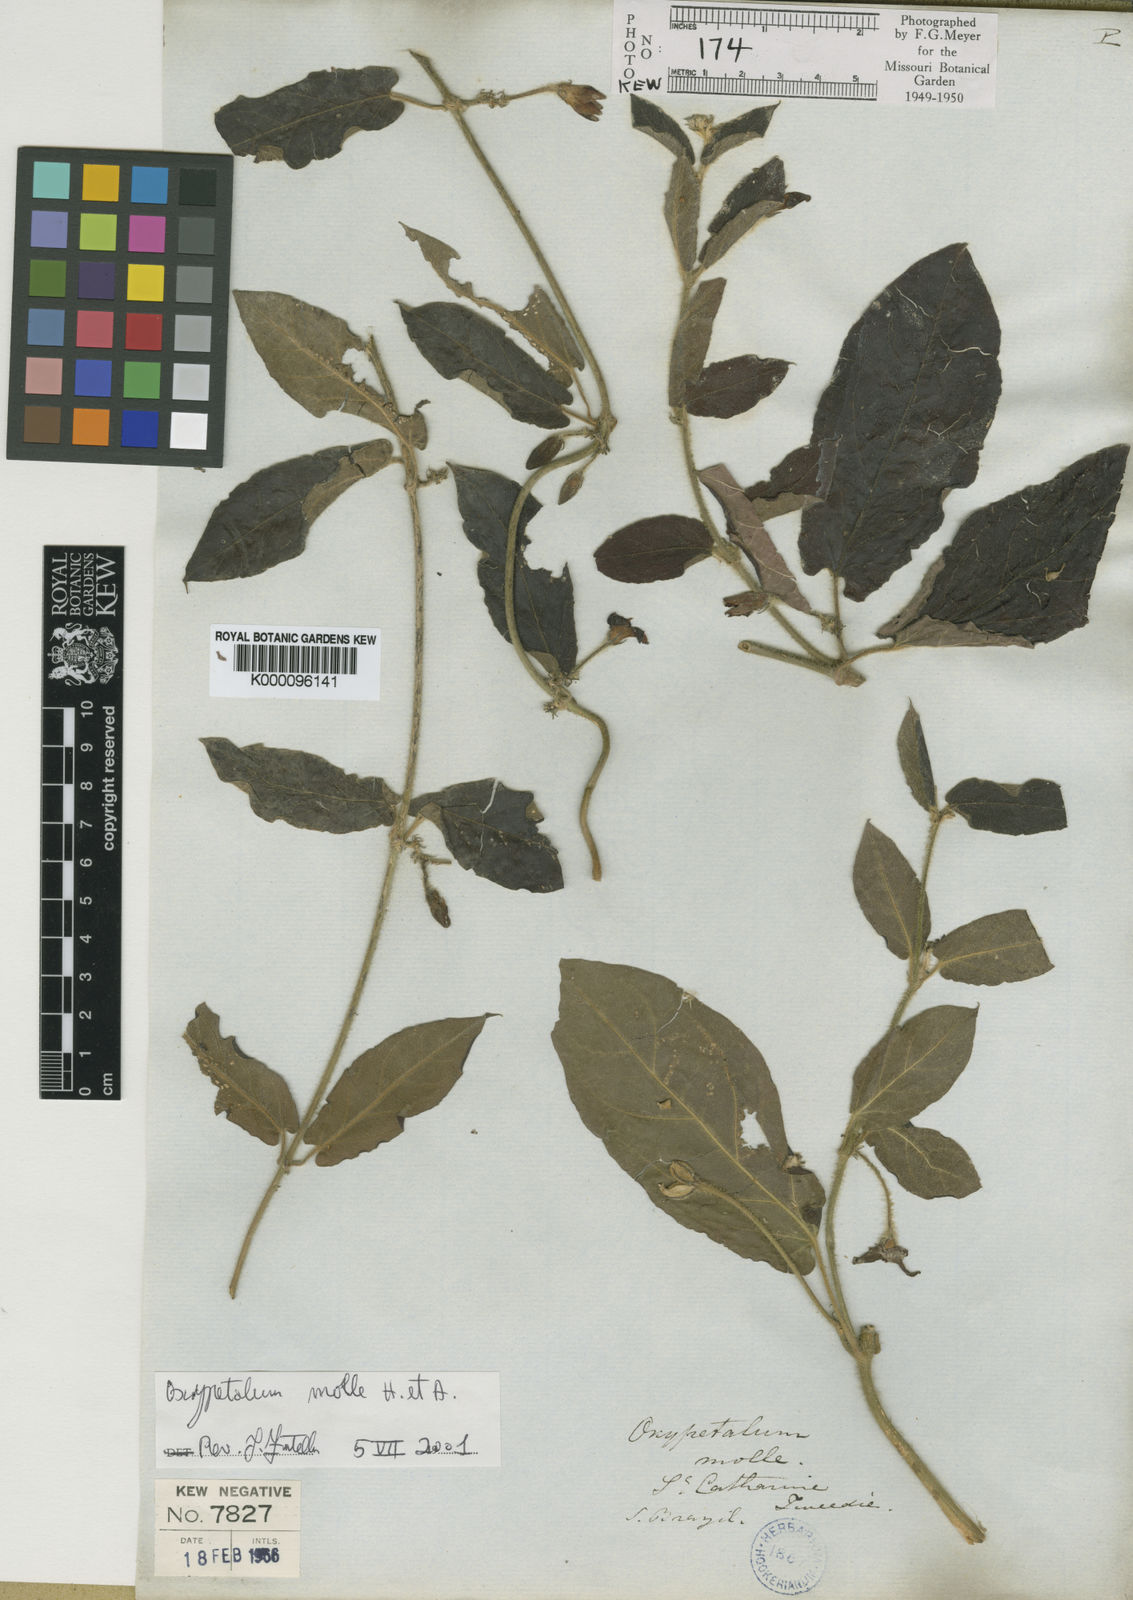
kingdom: Plantae
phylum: Tracheophyta
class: Magnoliopsida
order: Gentianales
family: Apocynaceae
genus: Oxypetalum
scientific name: Oxypetalum molle
